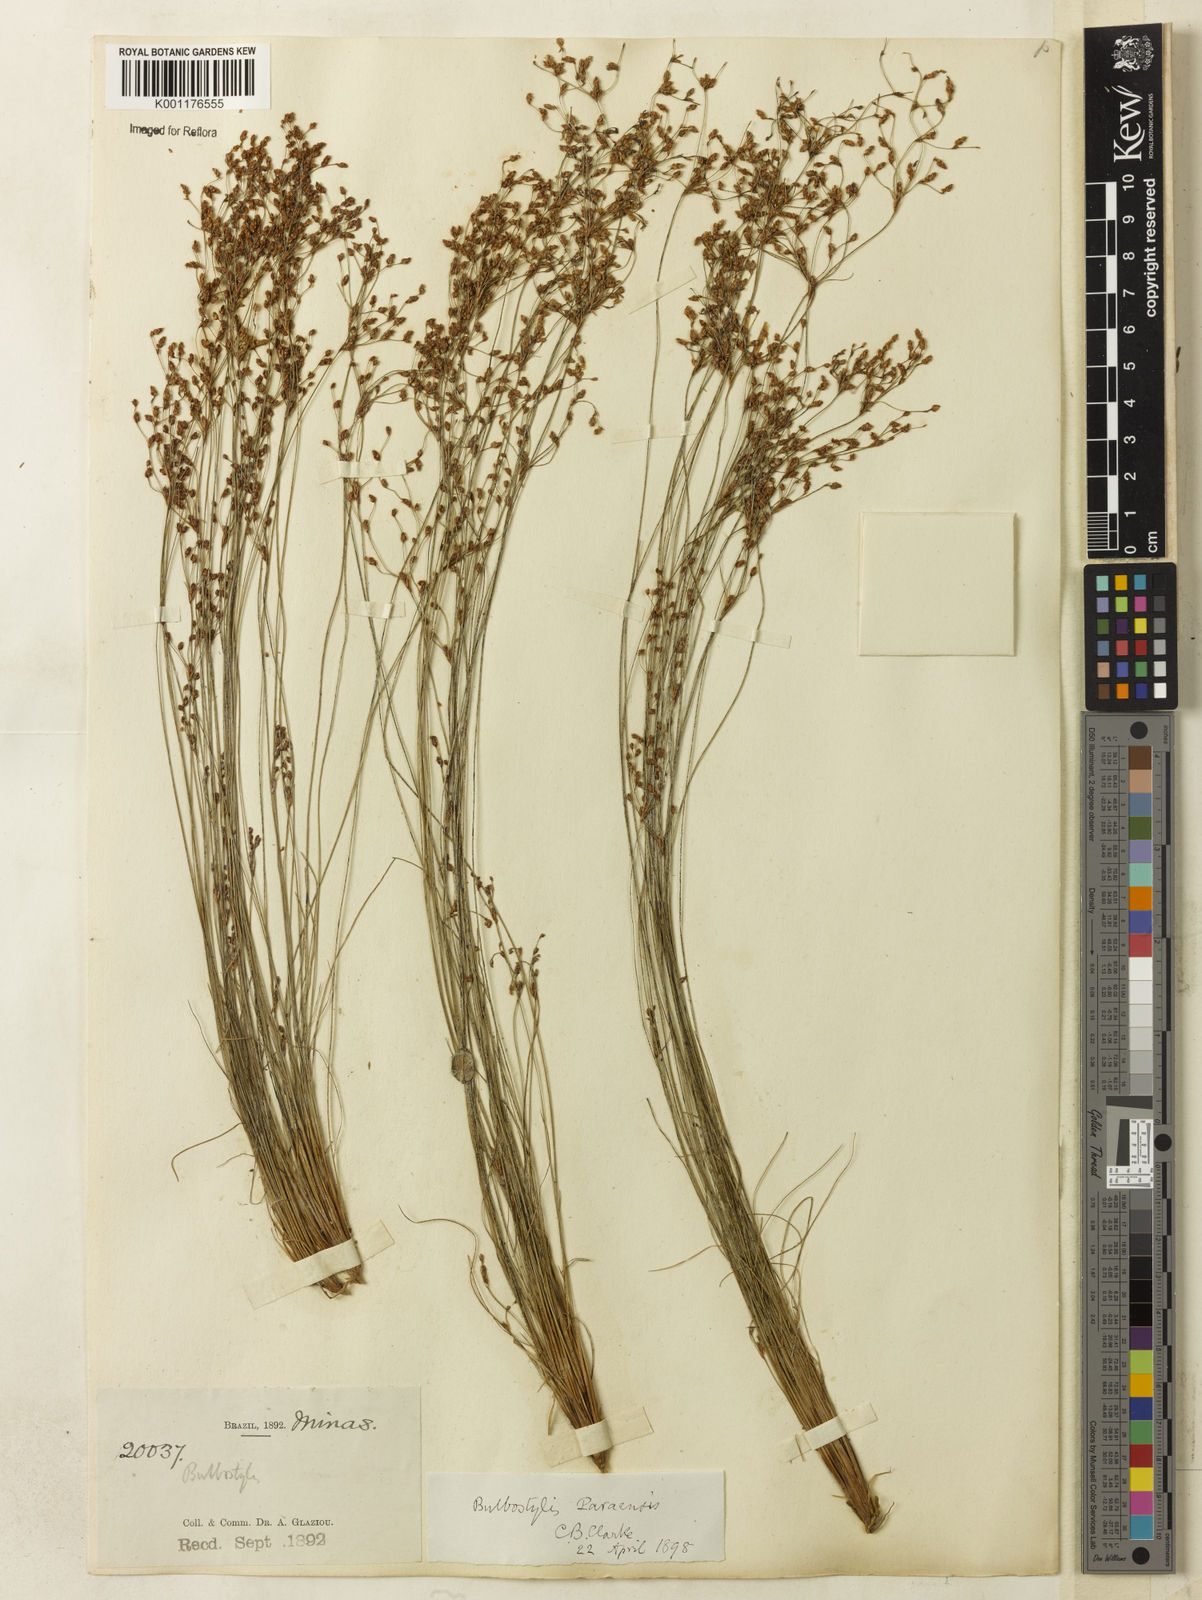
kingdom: Plantae
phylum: Tracheophyta
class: Liliopsida
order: Poales
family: Cyperaceae
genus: Bulbostylis
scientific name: Bulbostylis paraensis
